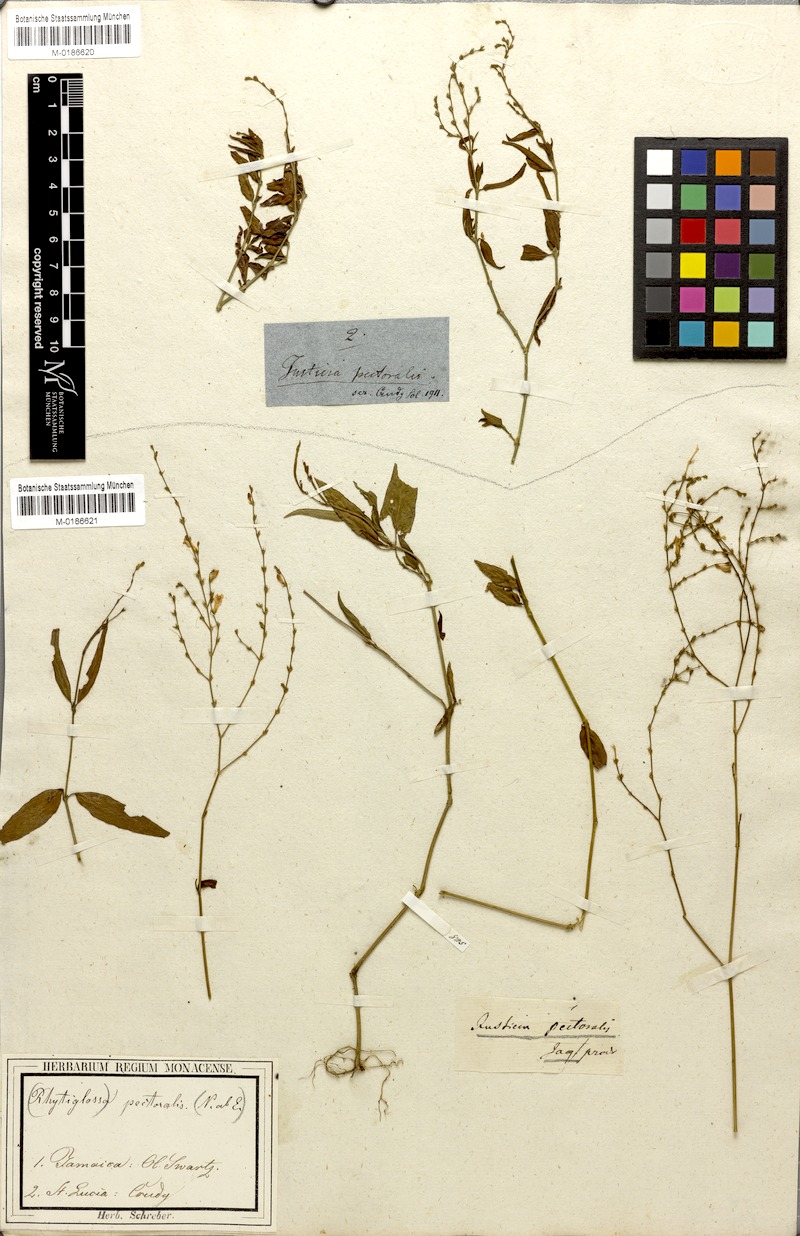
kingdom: Plantae
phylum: Tracheophyta
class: Magnoliopsida
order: Lamiales
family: Acanthaceae
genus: Dianthera
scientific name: Dianthera pectoralis
